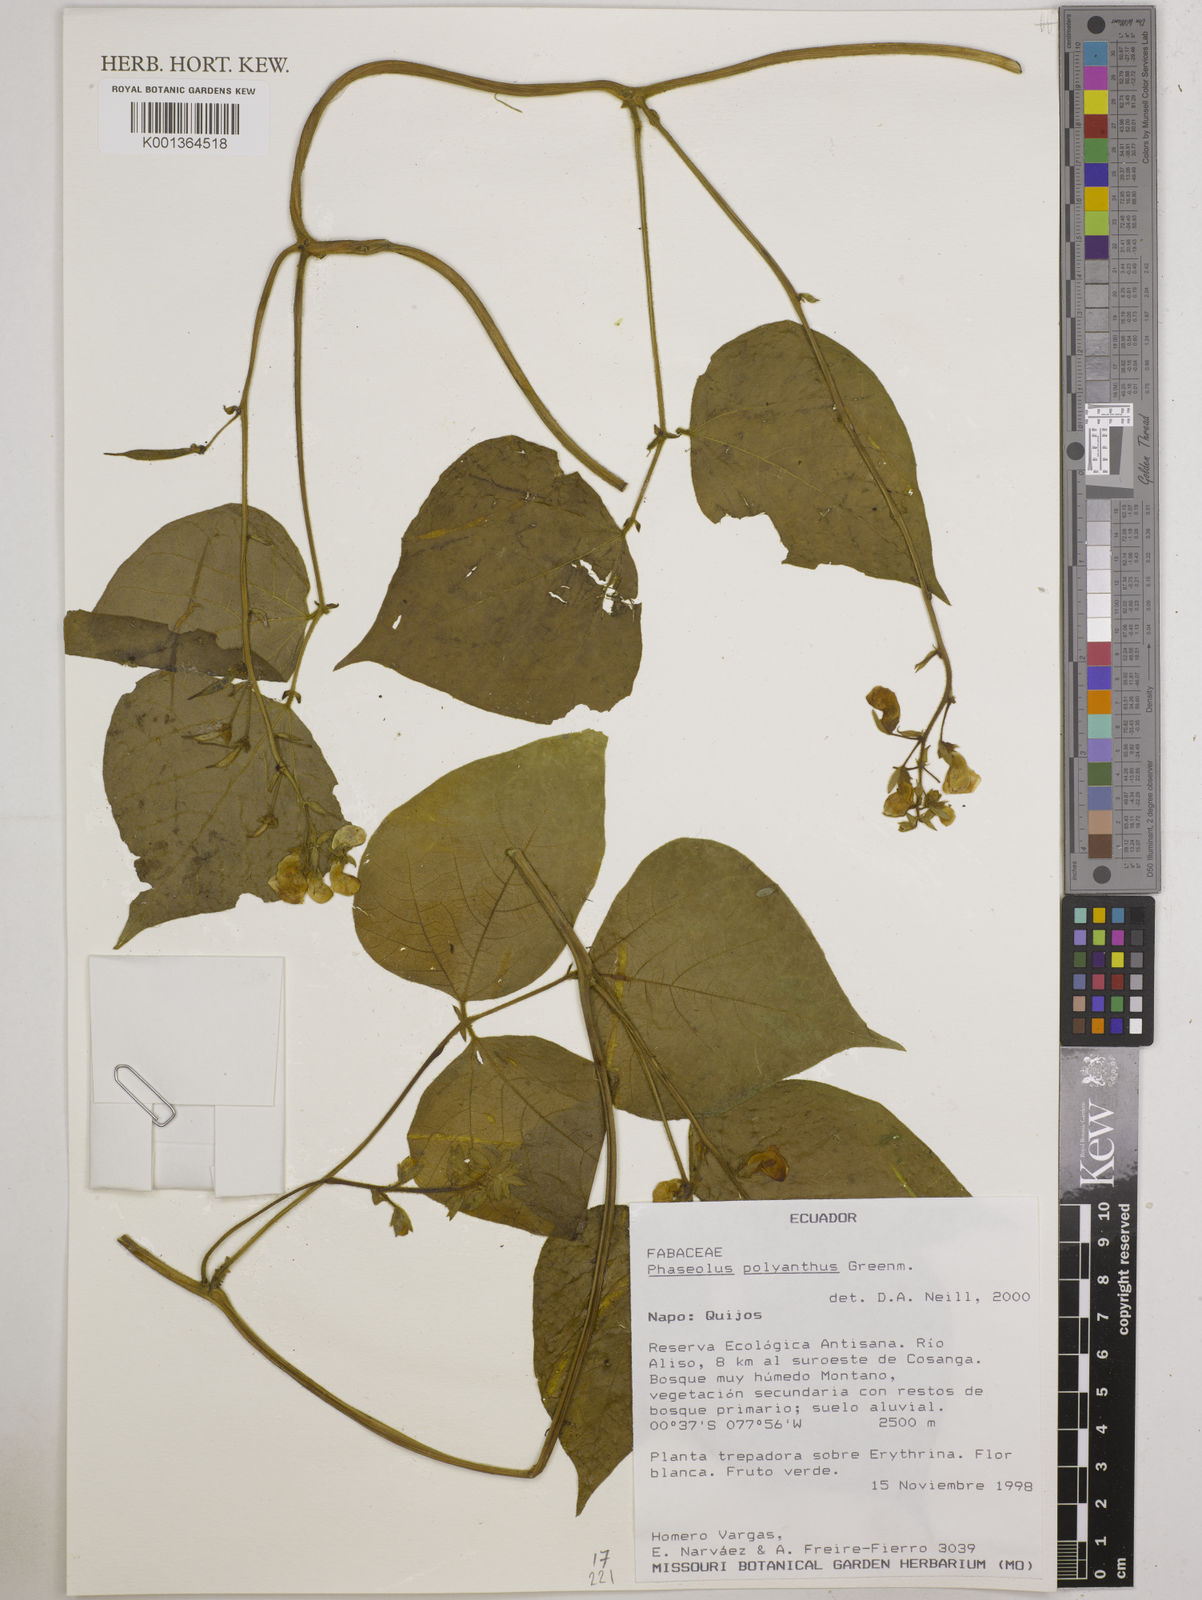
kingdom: Plantae
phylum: Tracheophyta
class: Magnoliopsida
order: Fabales
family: Fabaceae
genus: Phaseolus
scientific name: Phaseolus dumosus
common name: Year bean
